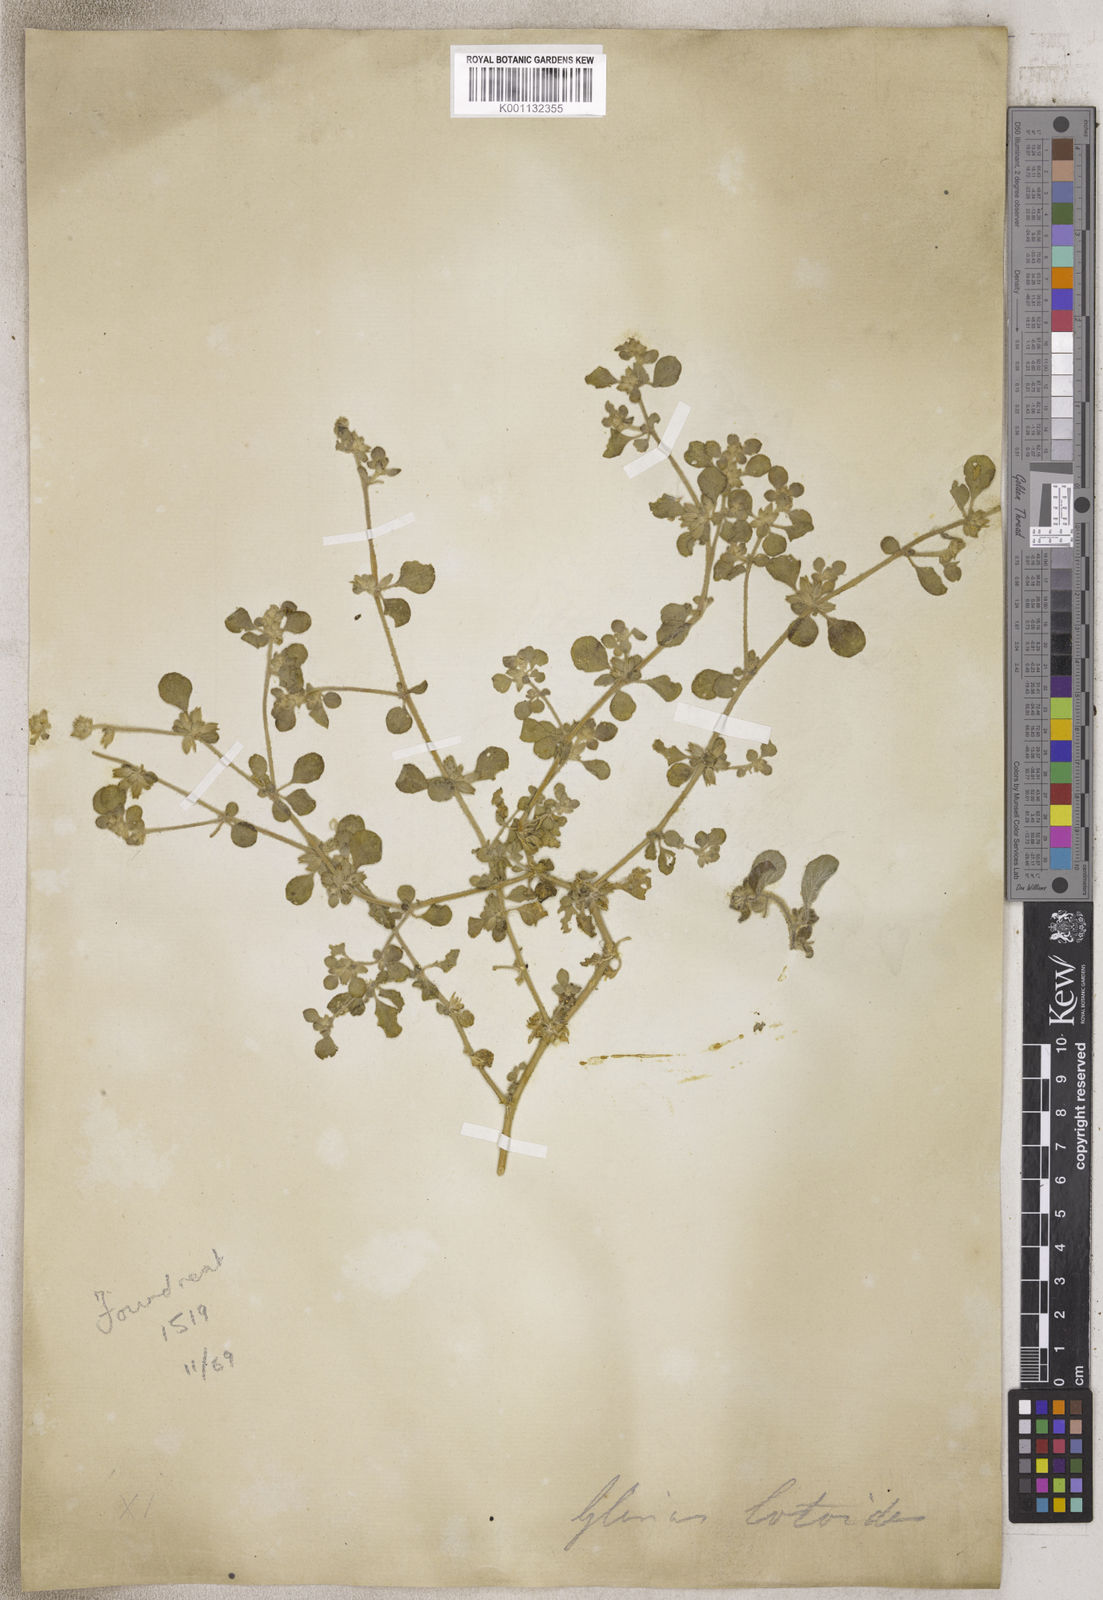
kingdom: Plantae
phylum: Tracheophyta
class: Magnoliopsida
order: Caryophyllales
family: Molluginaceae
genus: Glinus
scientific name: Glinus
